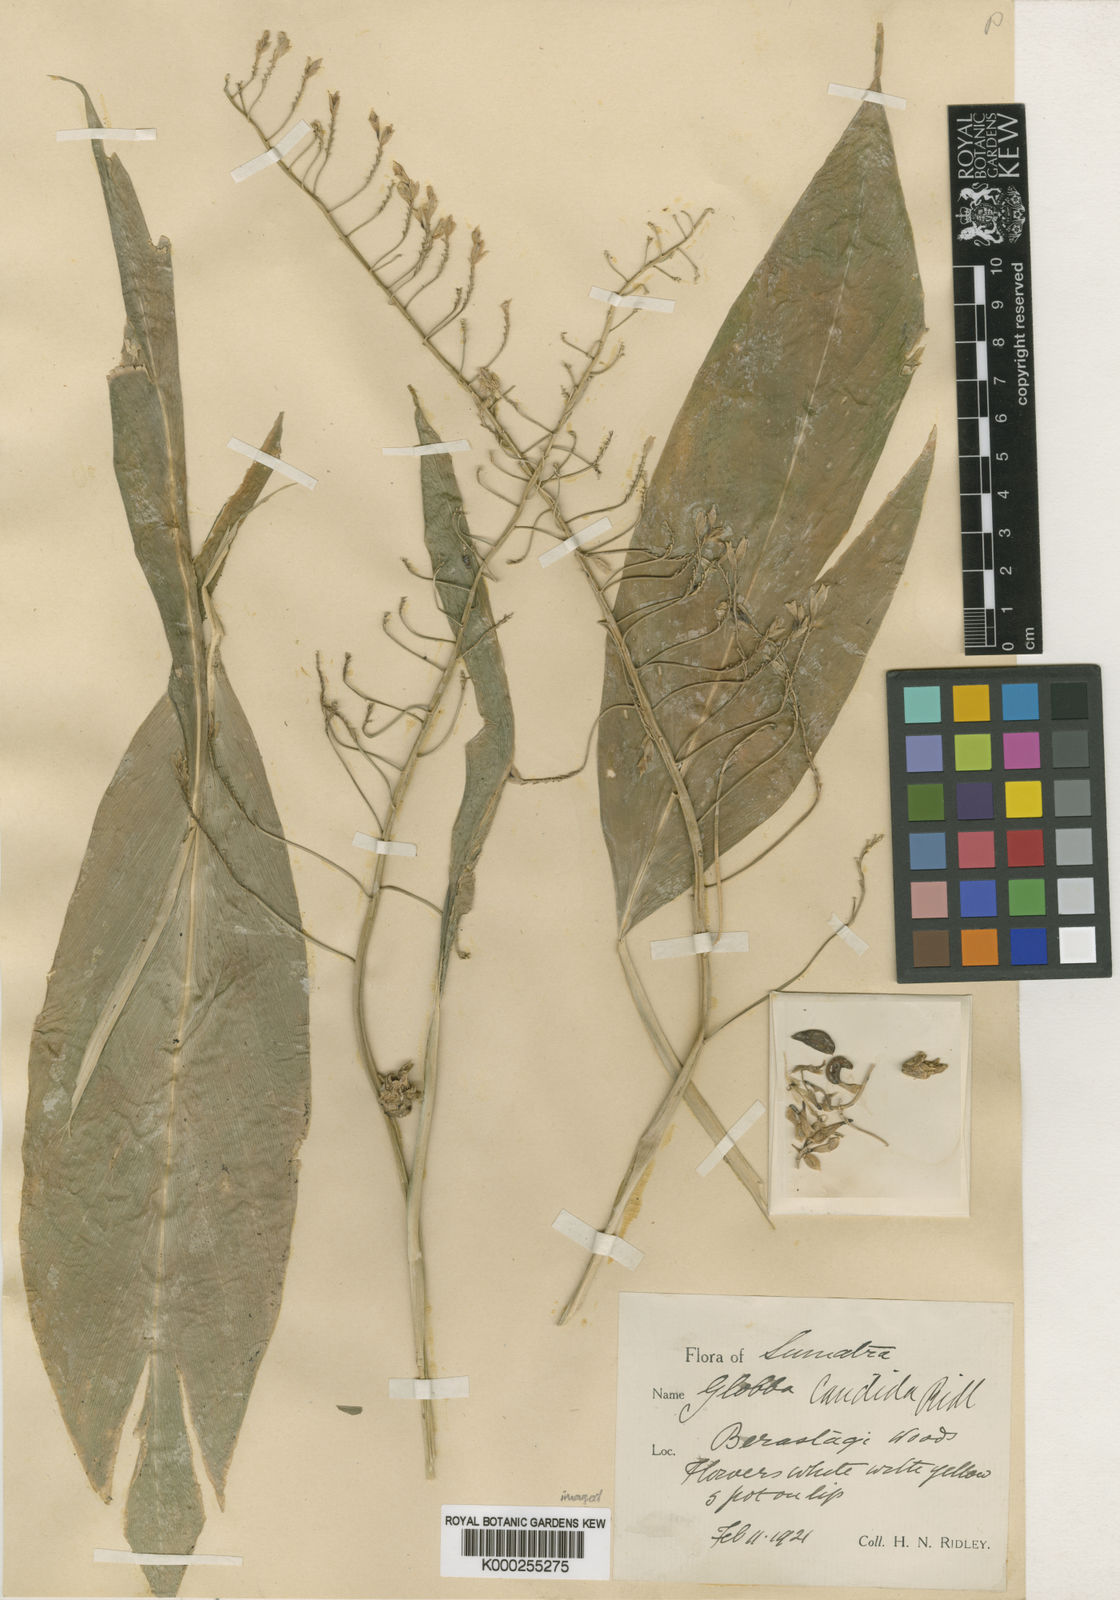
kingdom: Plantae
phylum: Tracheophyta
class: Liliopsida
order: Zingiberales
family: Zingiberaceae
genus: Globba
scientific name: Globba paniculata
